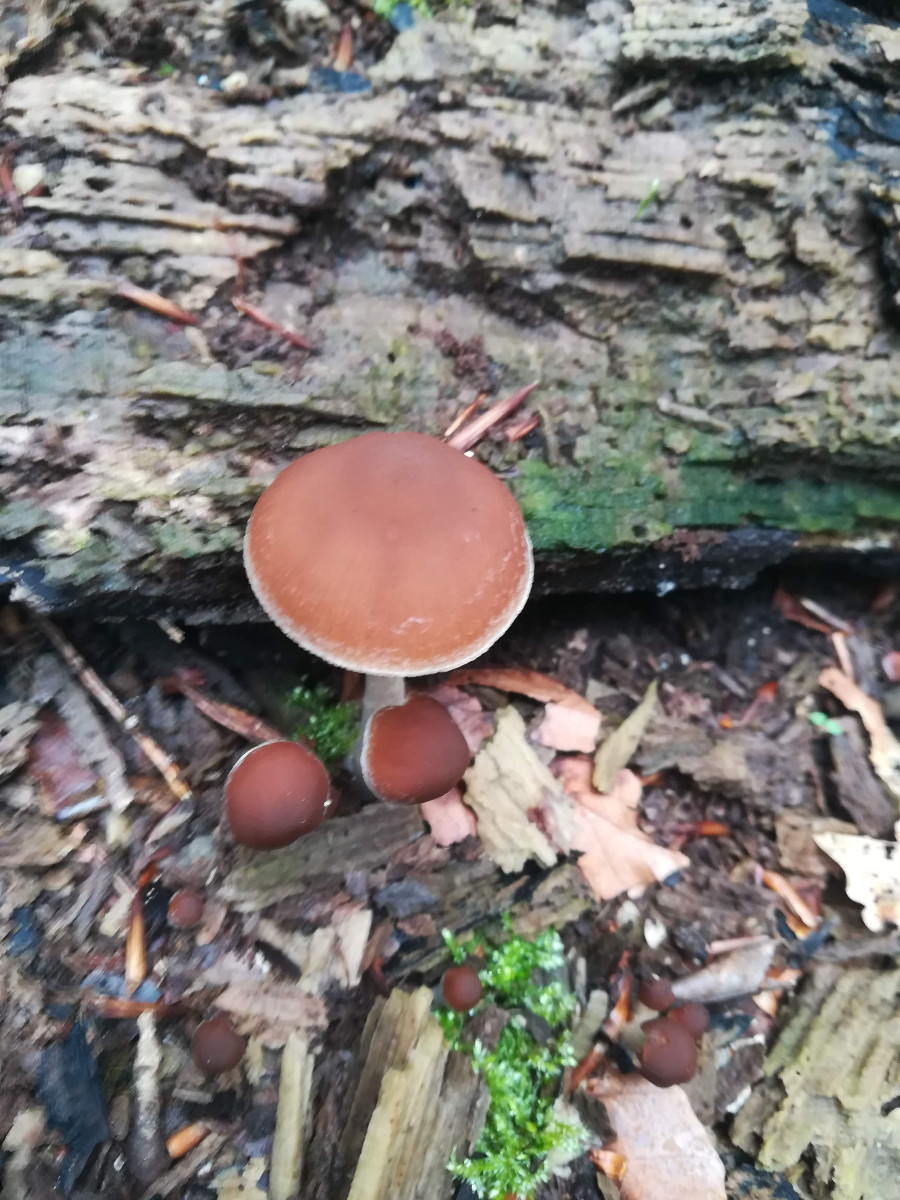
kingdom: Fungi
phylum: Basidiomycota
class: Agaricomycetes
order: Agaricales
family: Psathyrellaceae
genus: Psathyrella
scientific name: Psathyrella
